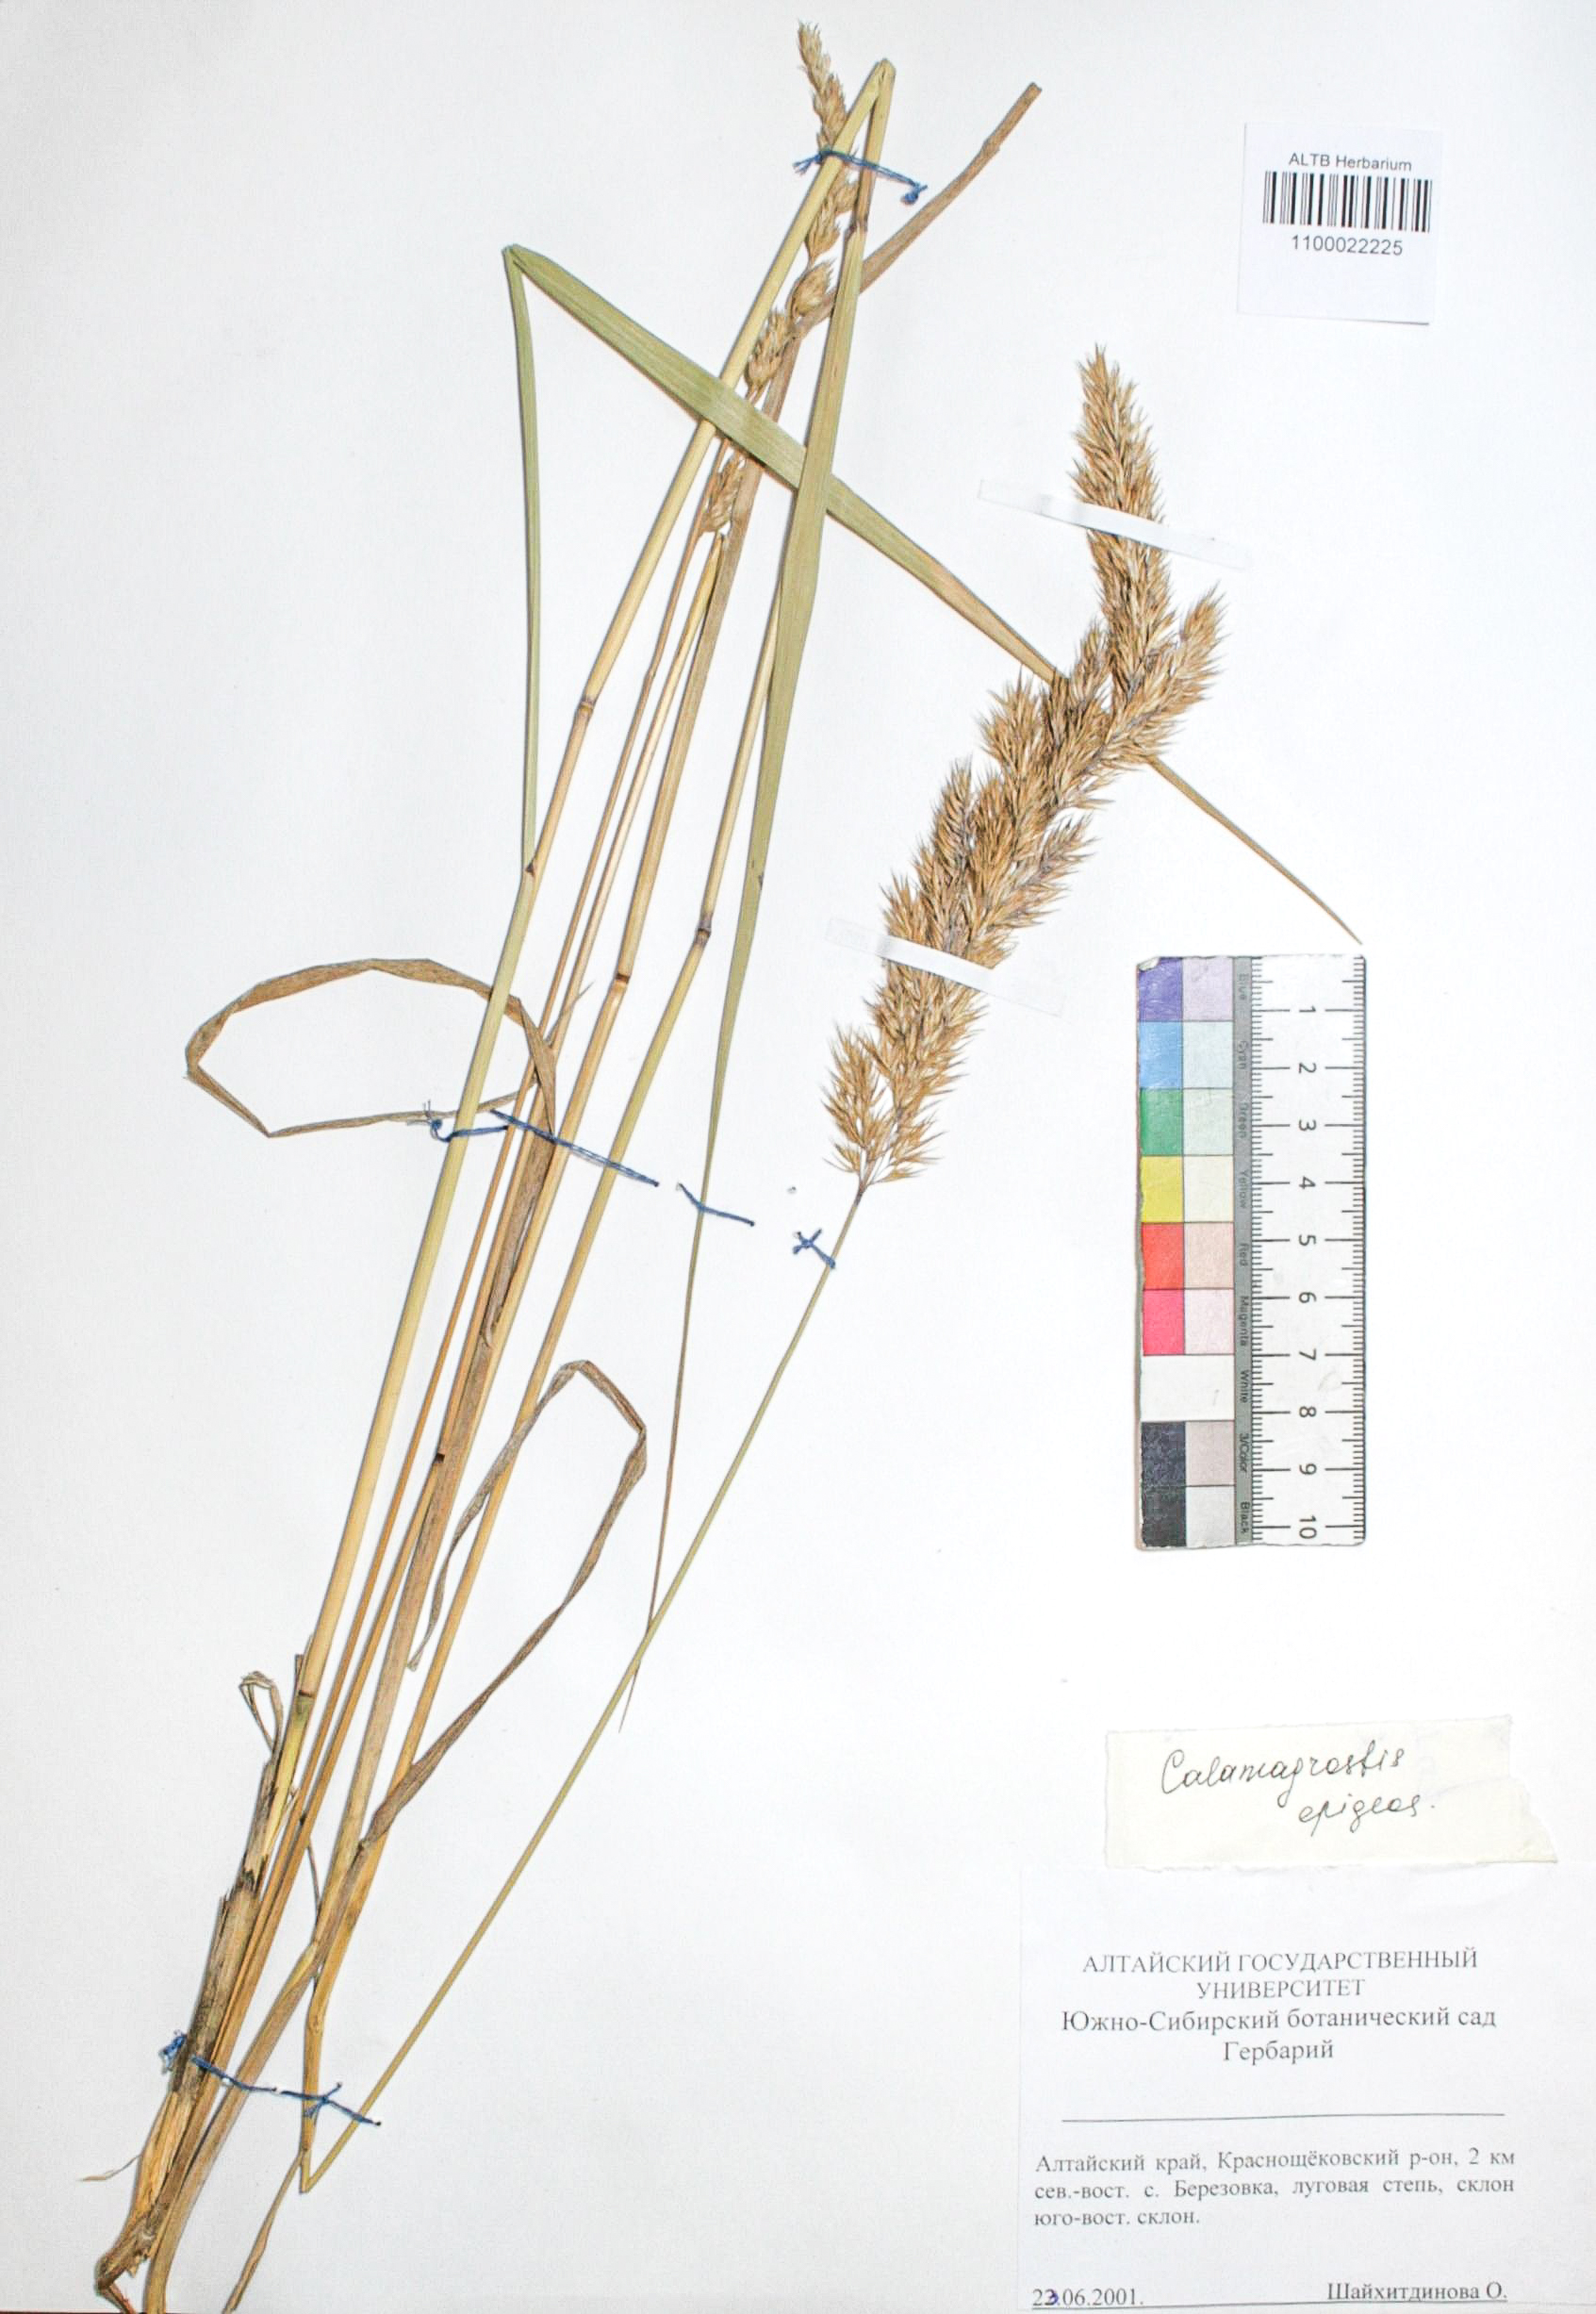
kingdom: Plantae
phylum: Tracheophyta
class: Liliopsida
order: Poales
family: Poaceae
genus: Calamagrostis
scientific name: Calamagrostis epigejos
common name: Wood small-reed
